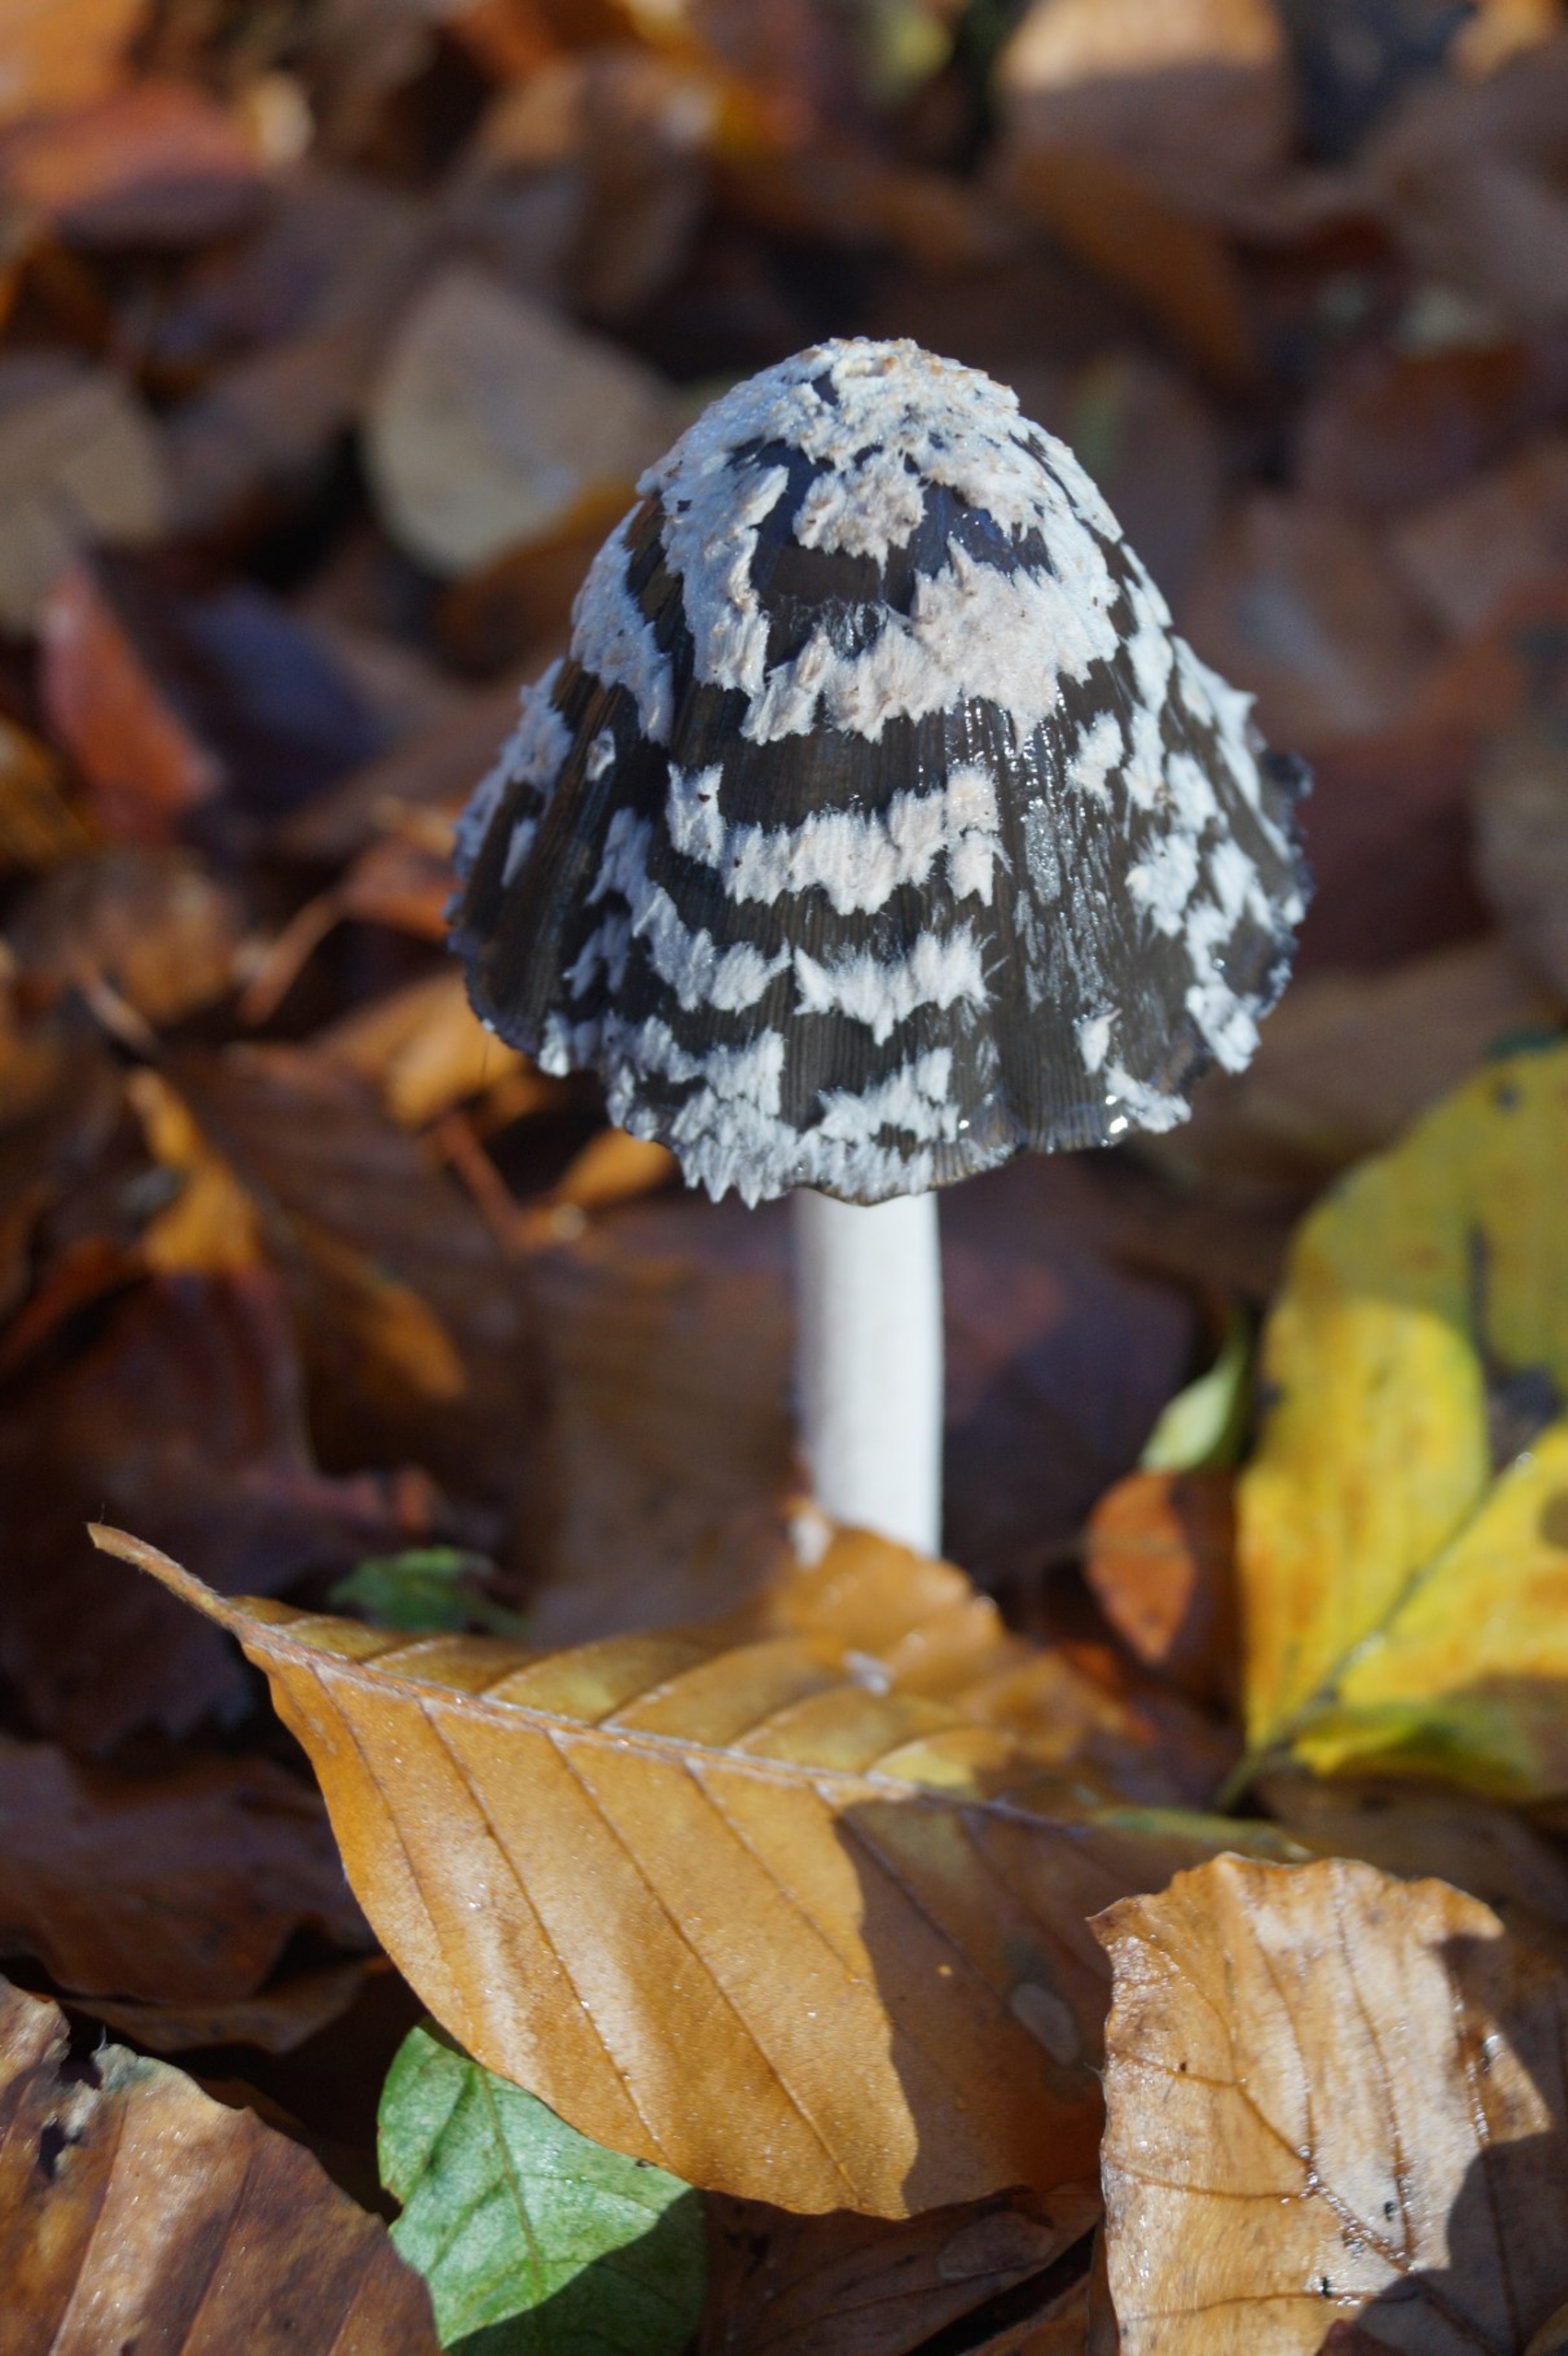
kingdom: Fungi
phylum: Basidiomycota
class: Agaricomycetes
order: Agaricales
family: Psathyrellaceae
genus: Coprinopsis
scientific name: Coprinopsis picacea
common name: Skade-blækhat
